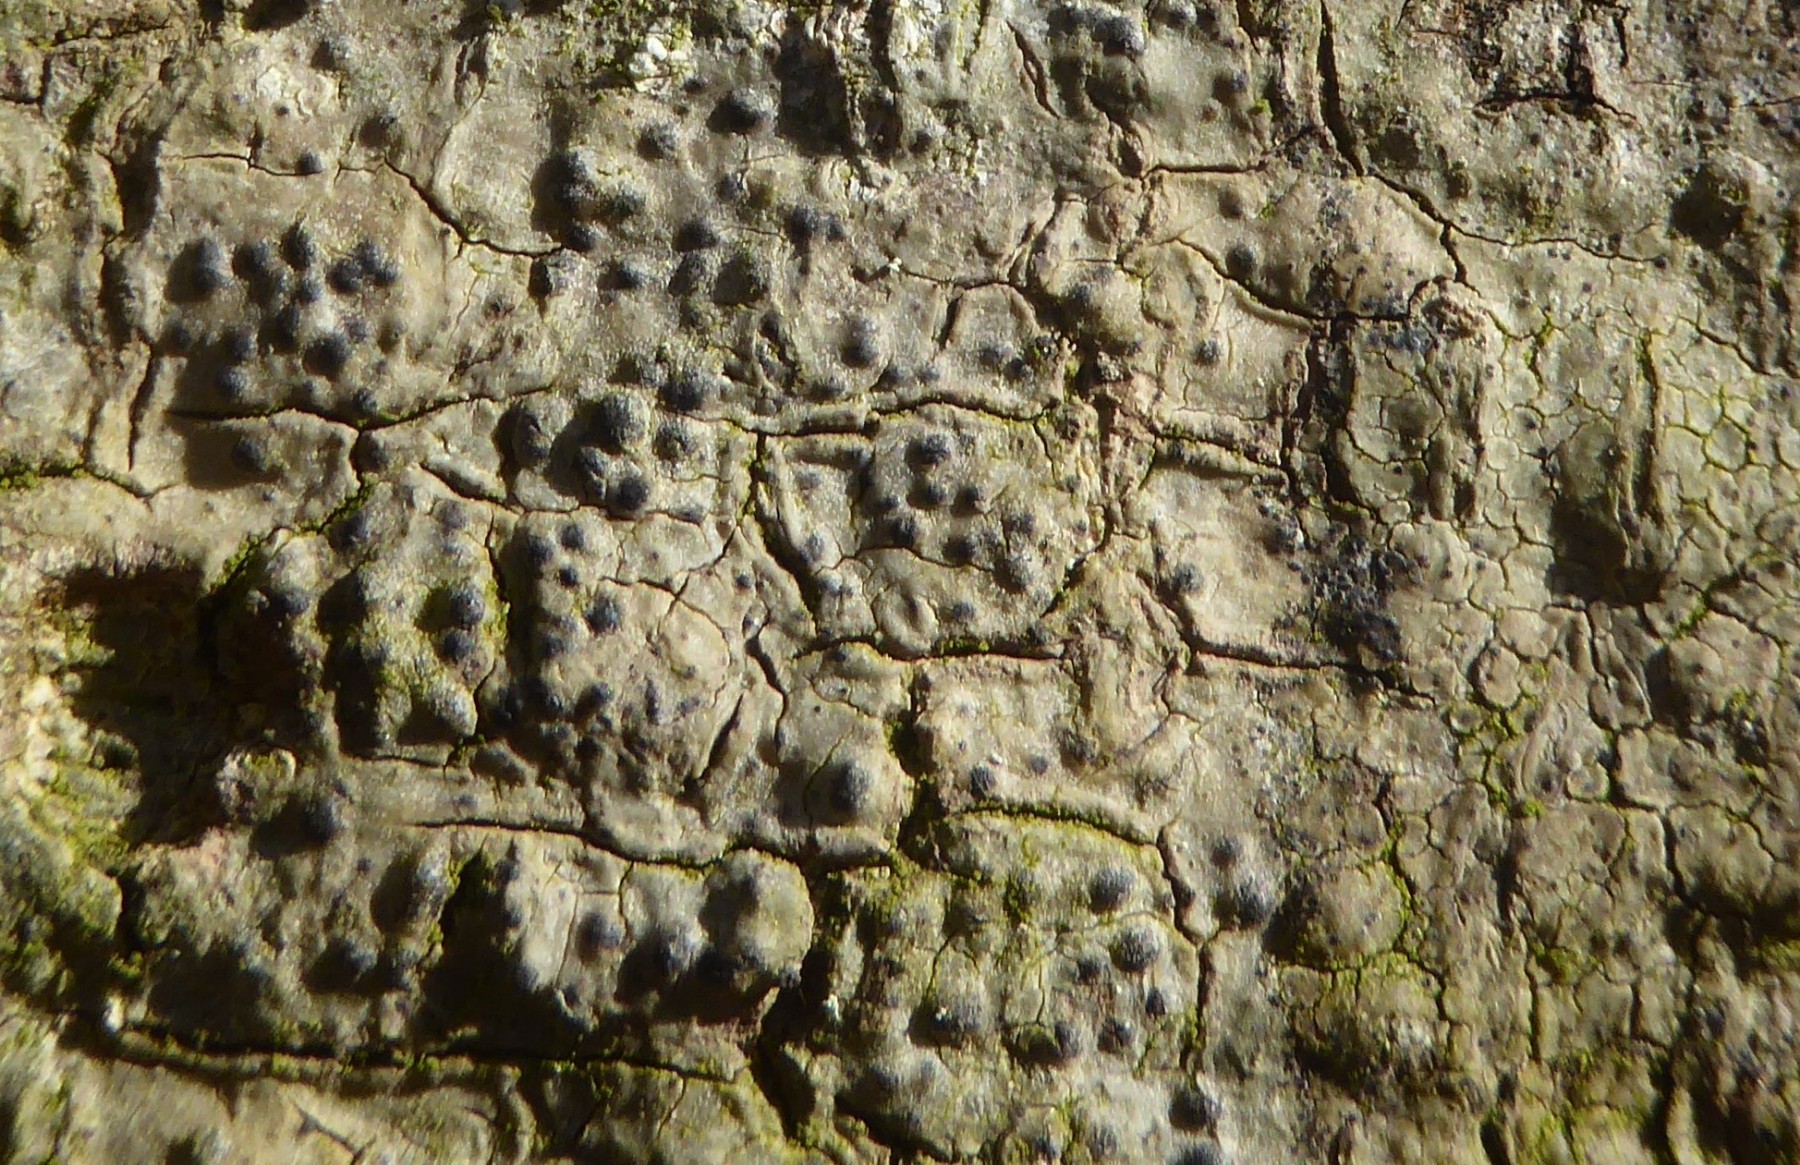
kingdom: Fungi
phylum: Ascomycota
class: Eurotiomycetes
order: Pyrenulales
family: Pyrenulaceae
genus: Pyrenula
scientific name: Pyrenula nitida
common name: glinsende kernelav
